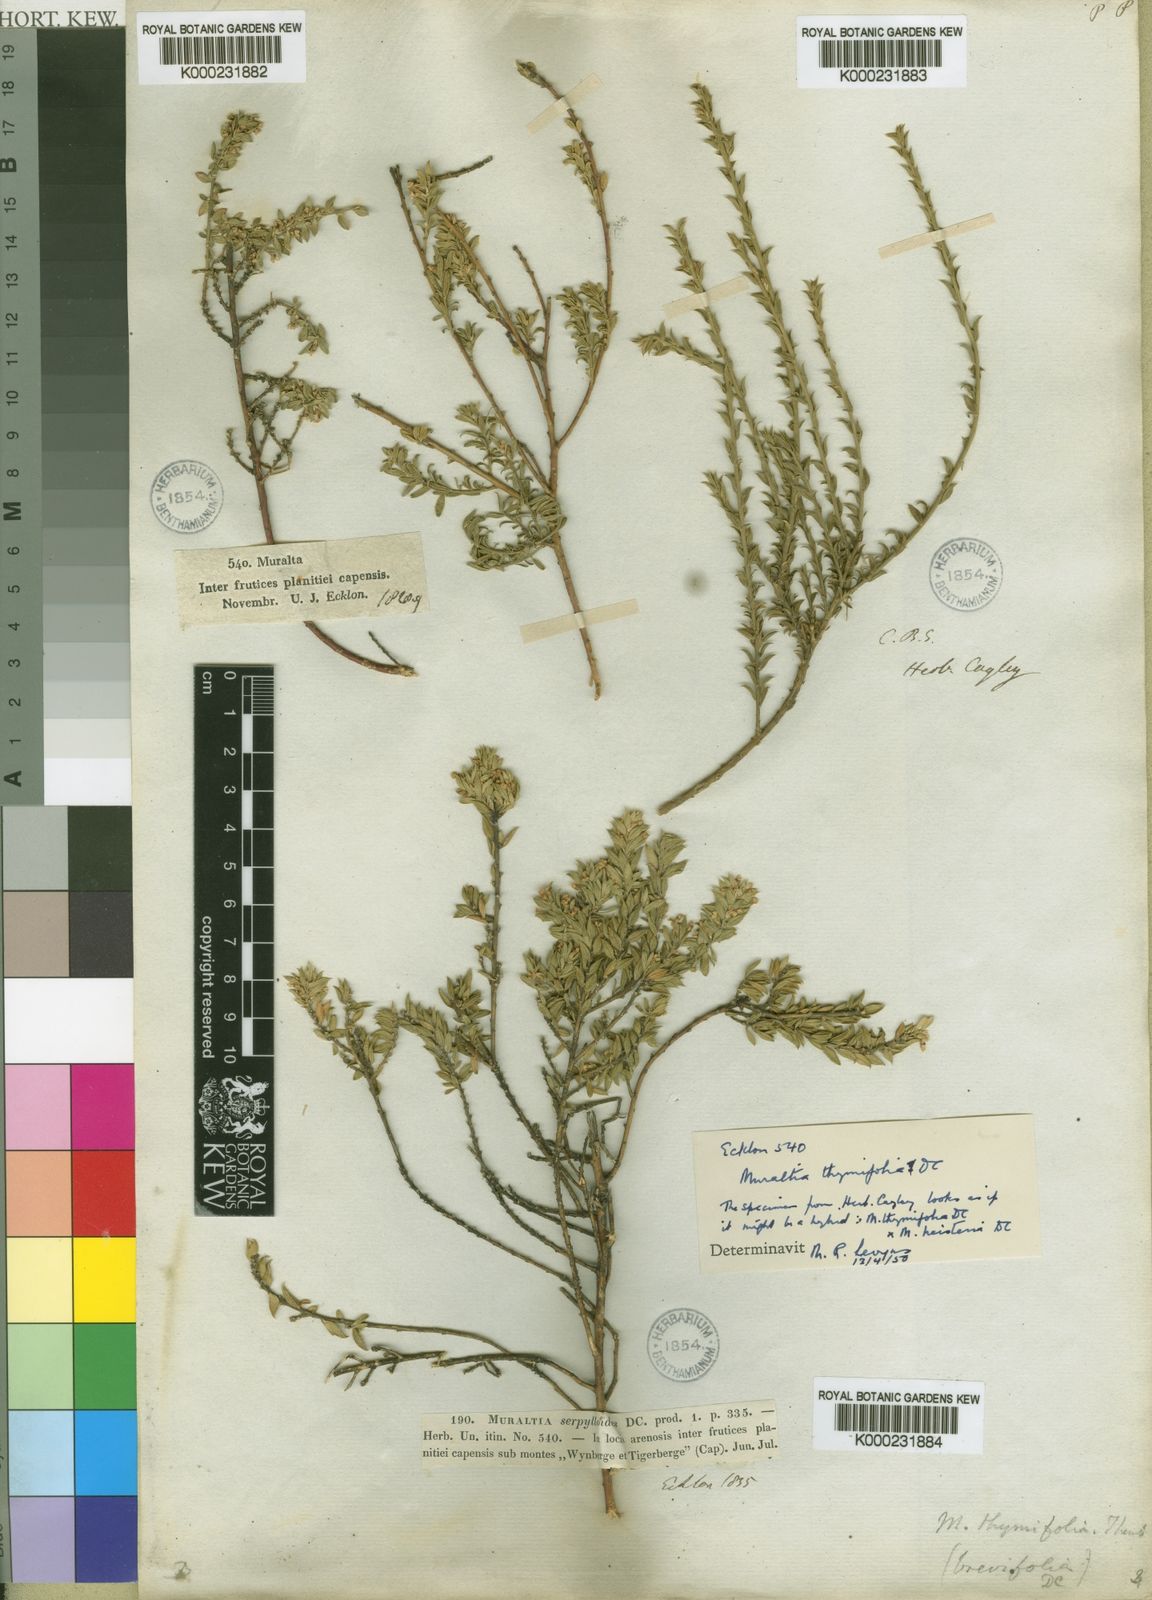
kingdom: Plantae
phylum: Tracheophyta
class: Magnoliopsida
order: Fabales
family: Polygalaceae
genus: Muraltia
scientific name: Muraltia thymifolia
